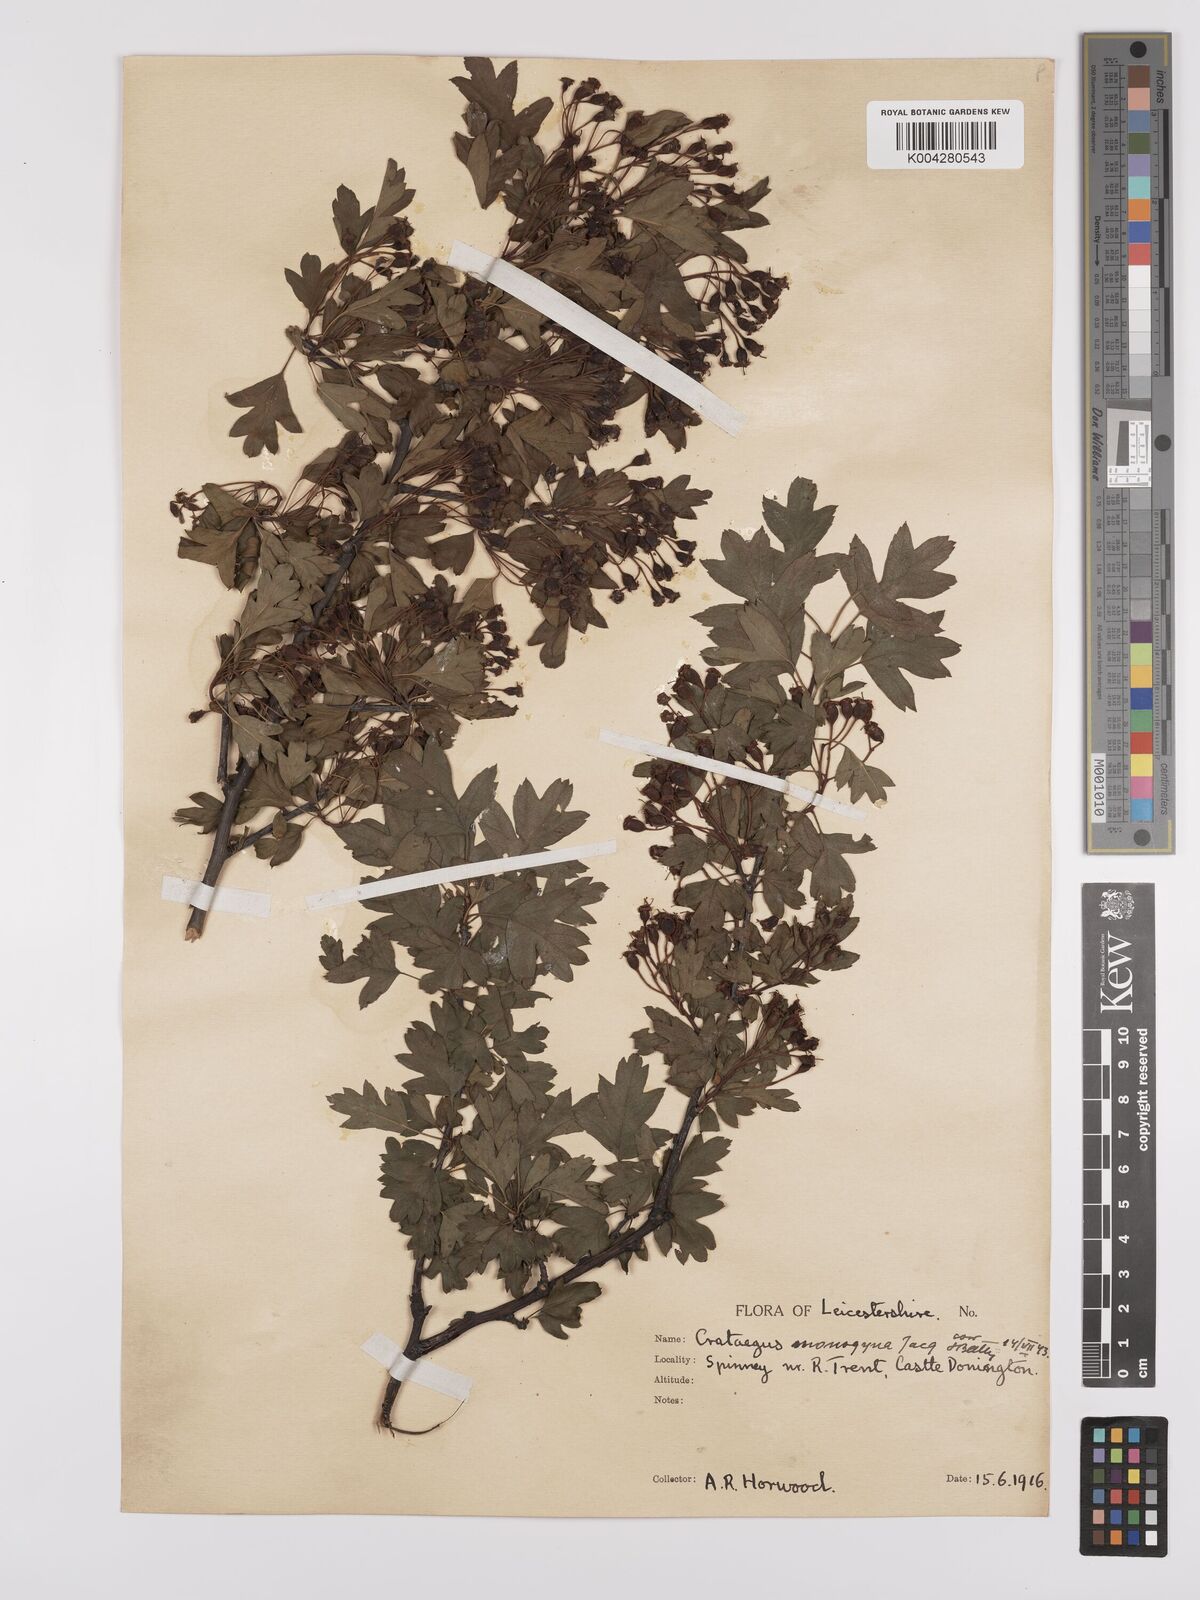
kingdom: Plantae
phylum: Tracheophyta
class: Magnoliopsida
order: Rosales
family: Rosaceae
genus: Crataegus
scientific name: Crataegus monogyna
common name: Hawthorn
